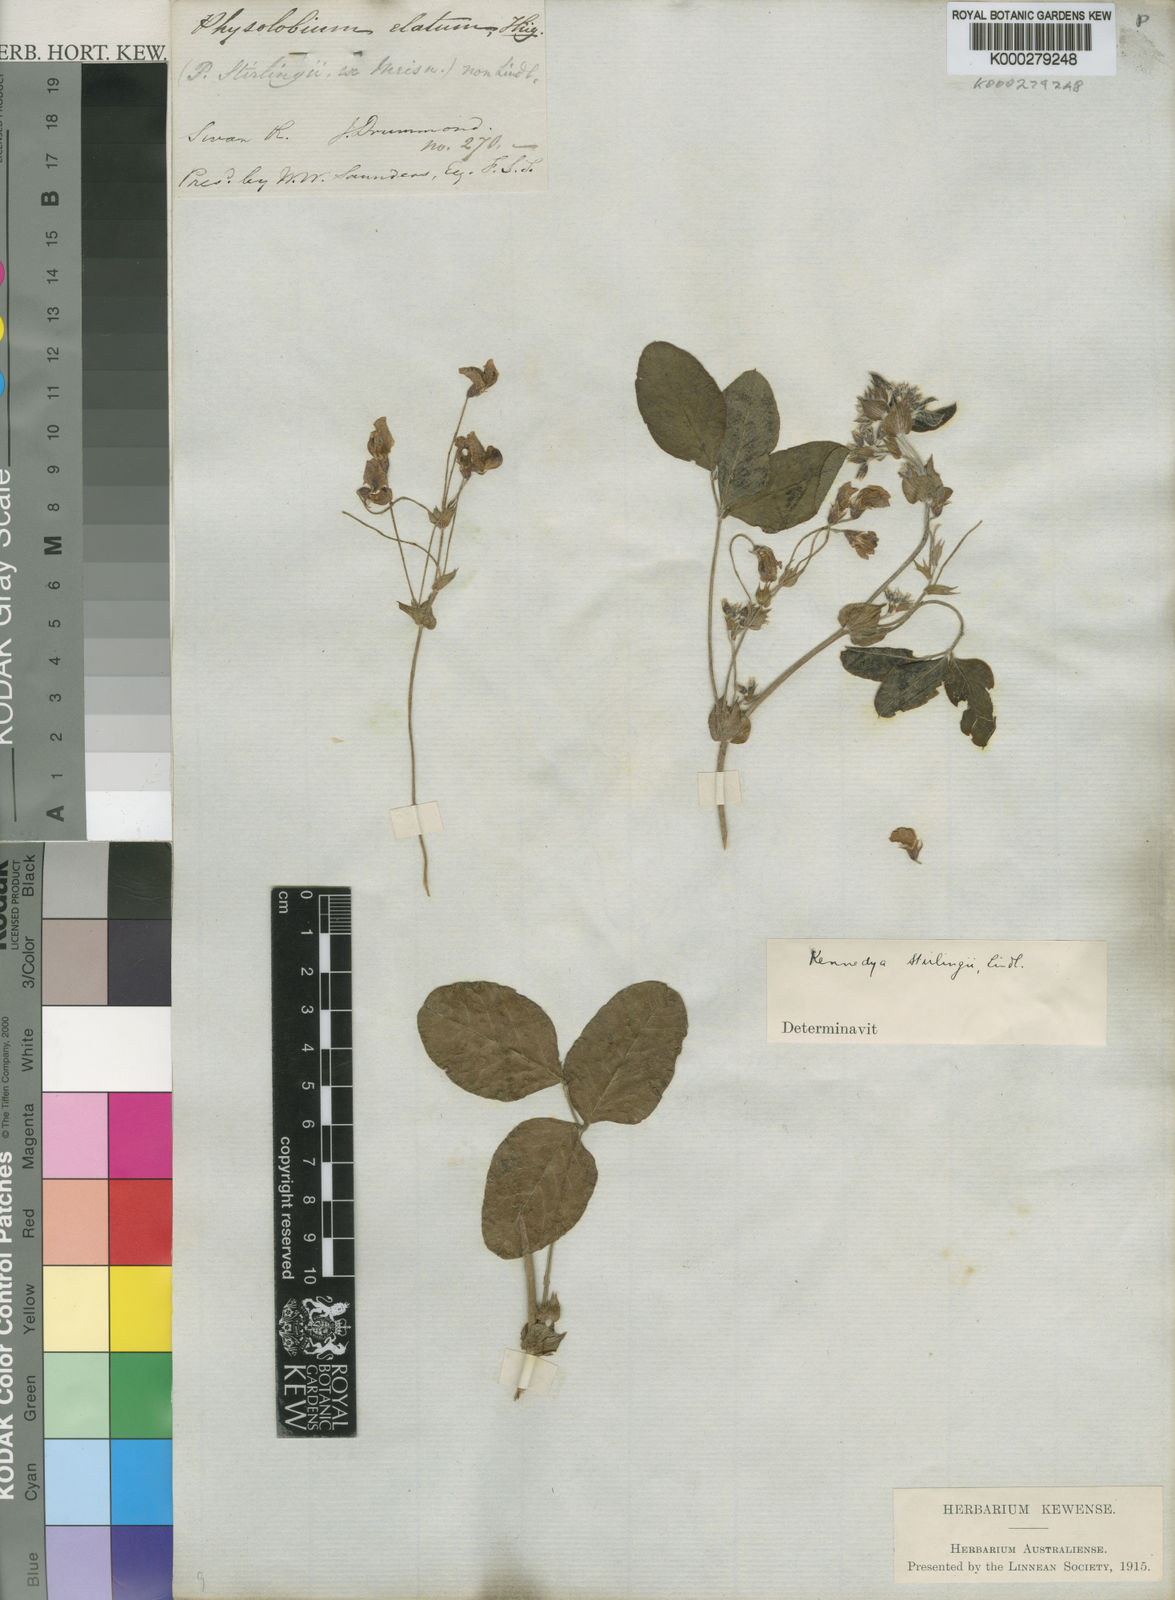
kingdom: Plantae
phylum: Tracheophyta
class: Magnoliopsida
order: Fabales
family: Fabaceae
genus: Kennedia
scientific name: Kennedia stirlingii
